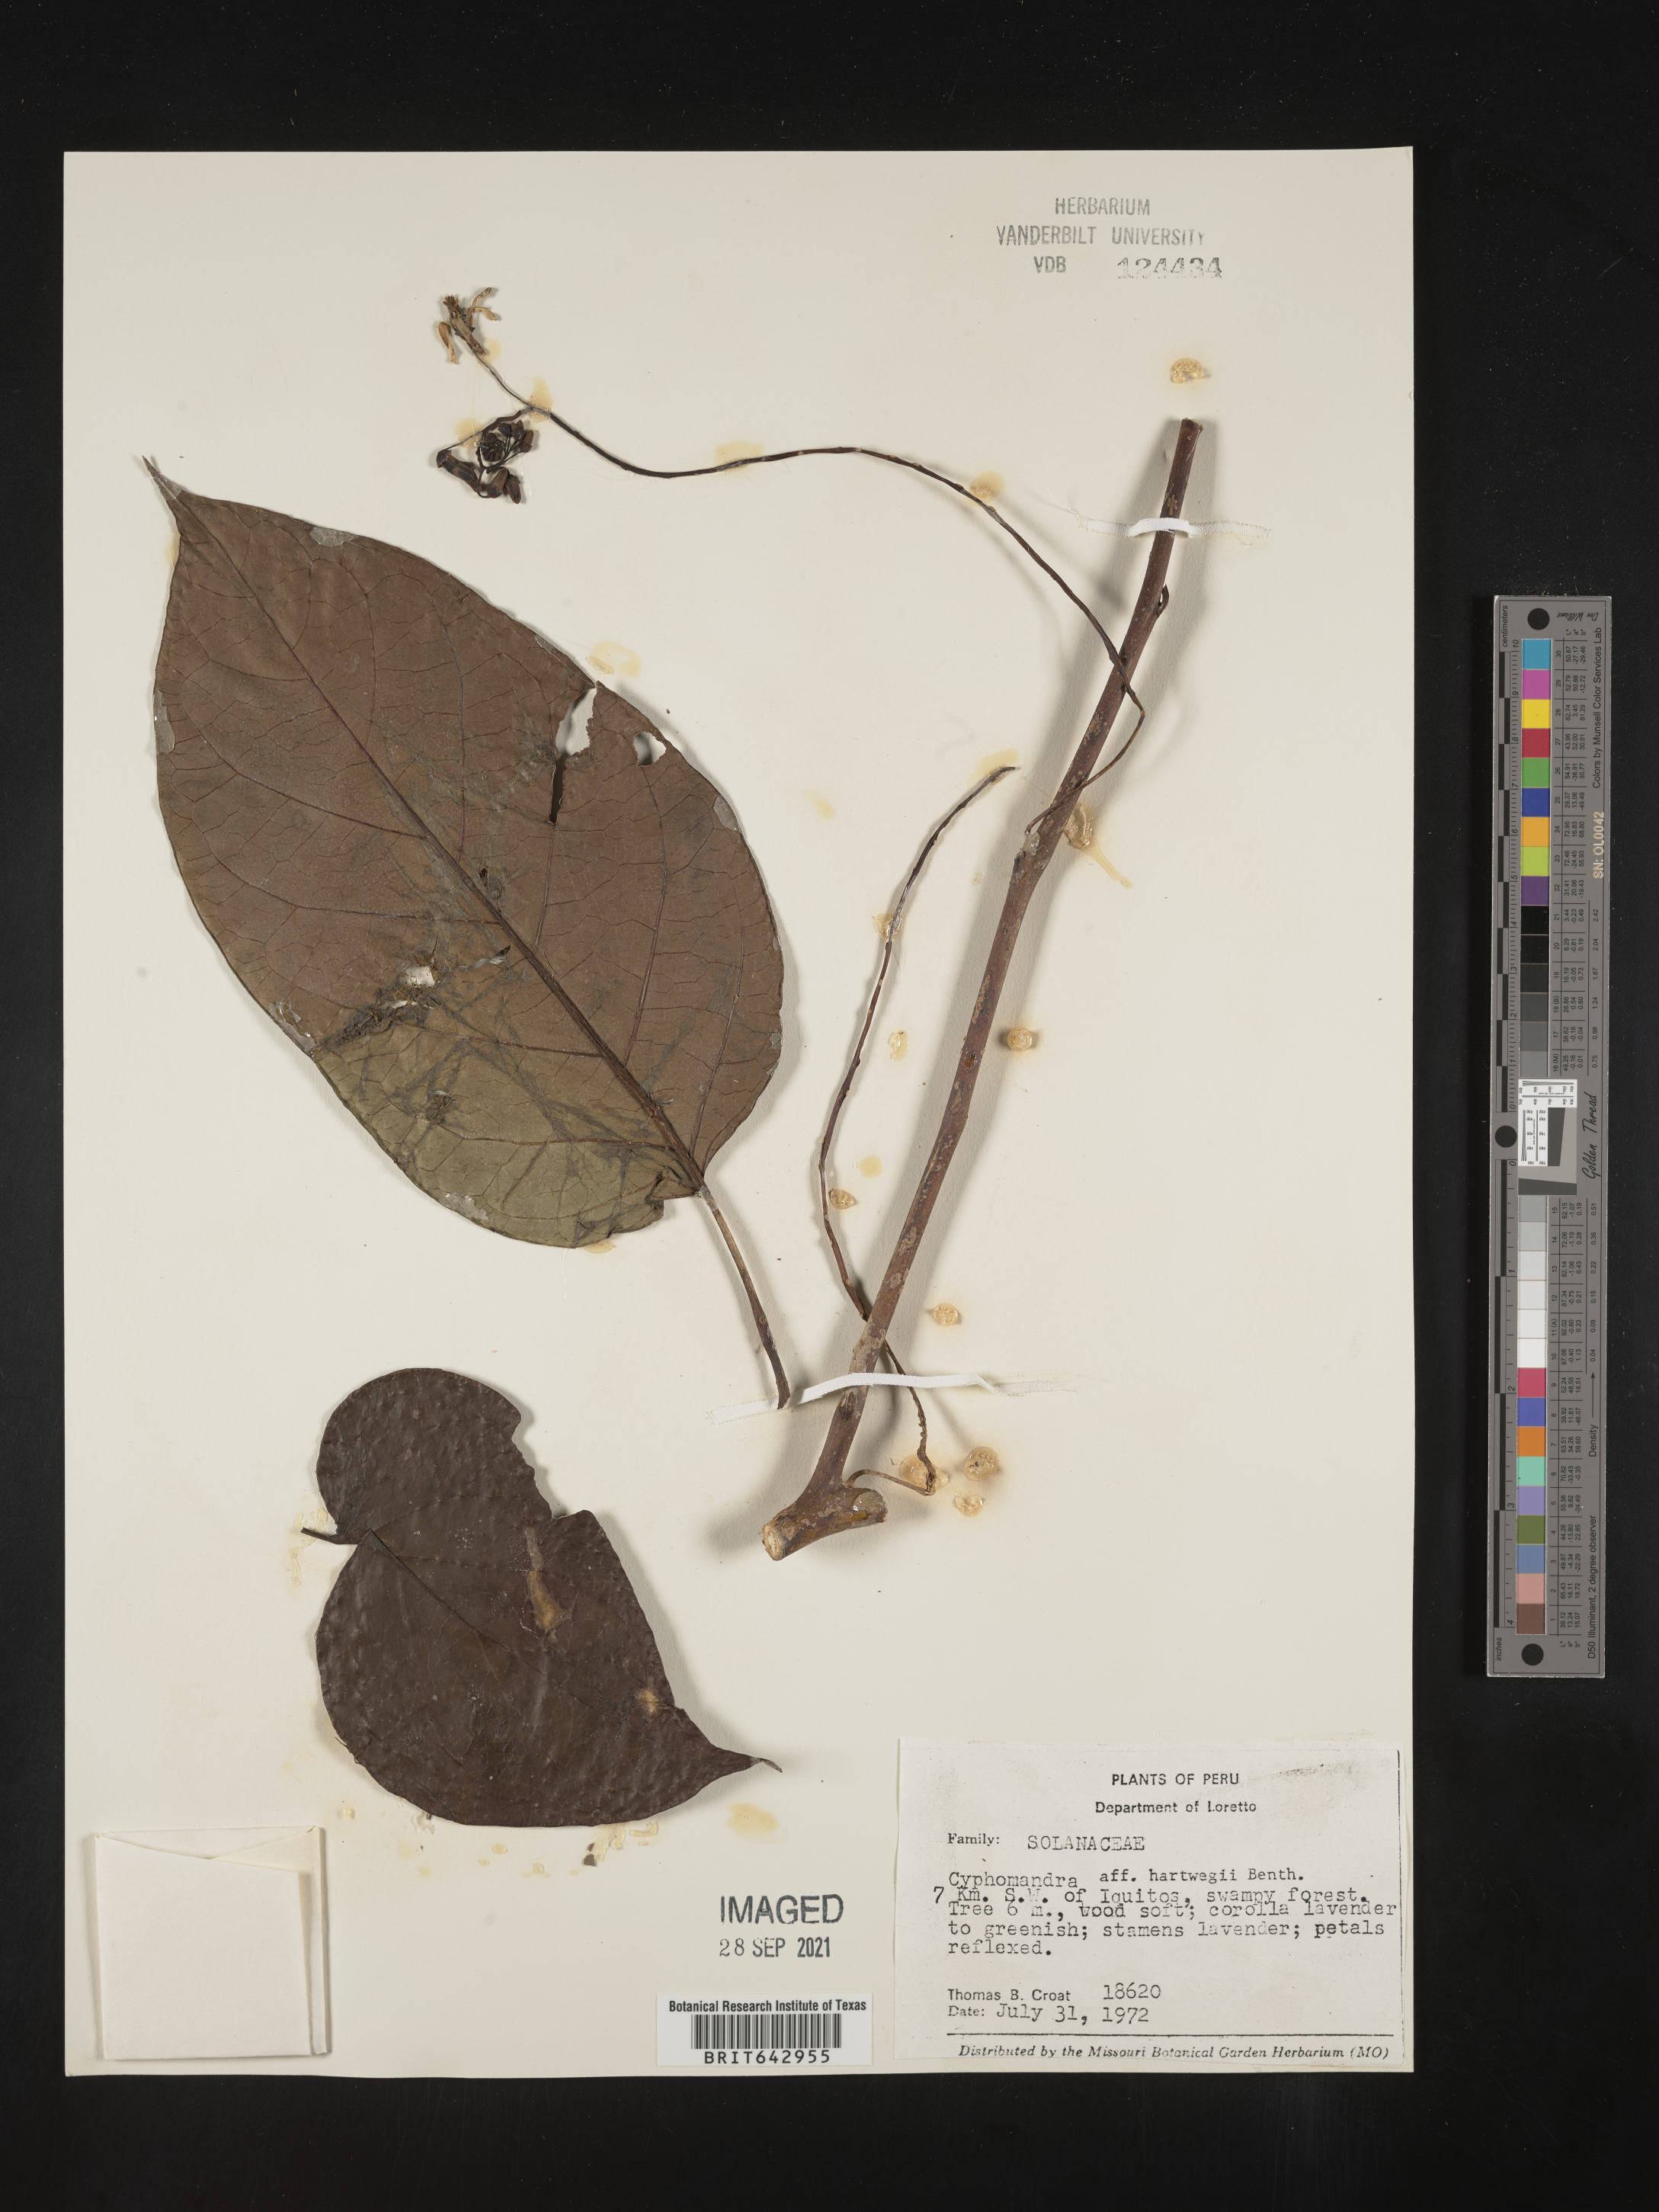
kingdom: Plantae
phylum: Tracheophyta
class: Magnoliopsida
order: Solanales
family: Solanaceae
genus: Solanum
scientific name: Solanum
